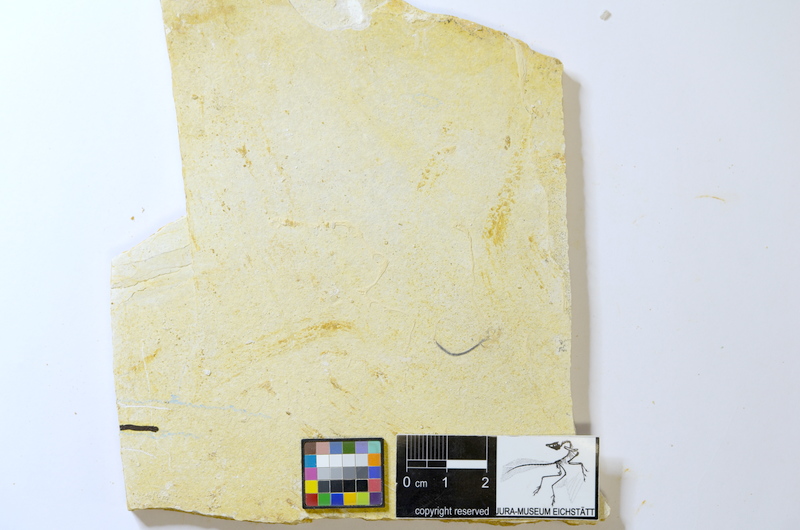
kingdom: Animalia
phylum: Chordata
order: Salmoniformes
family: Orthogonikleithridae
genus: Orthogonikleithrus
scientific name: Orthogonikleithrus hoelli
